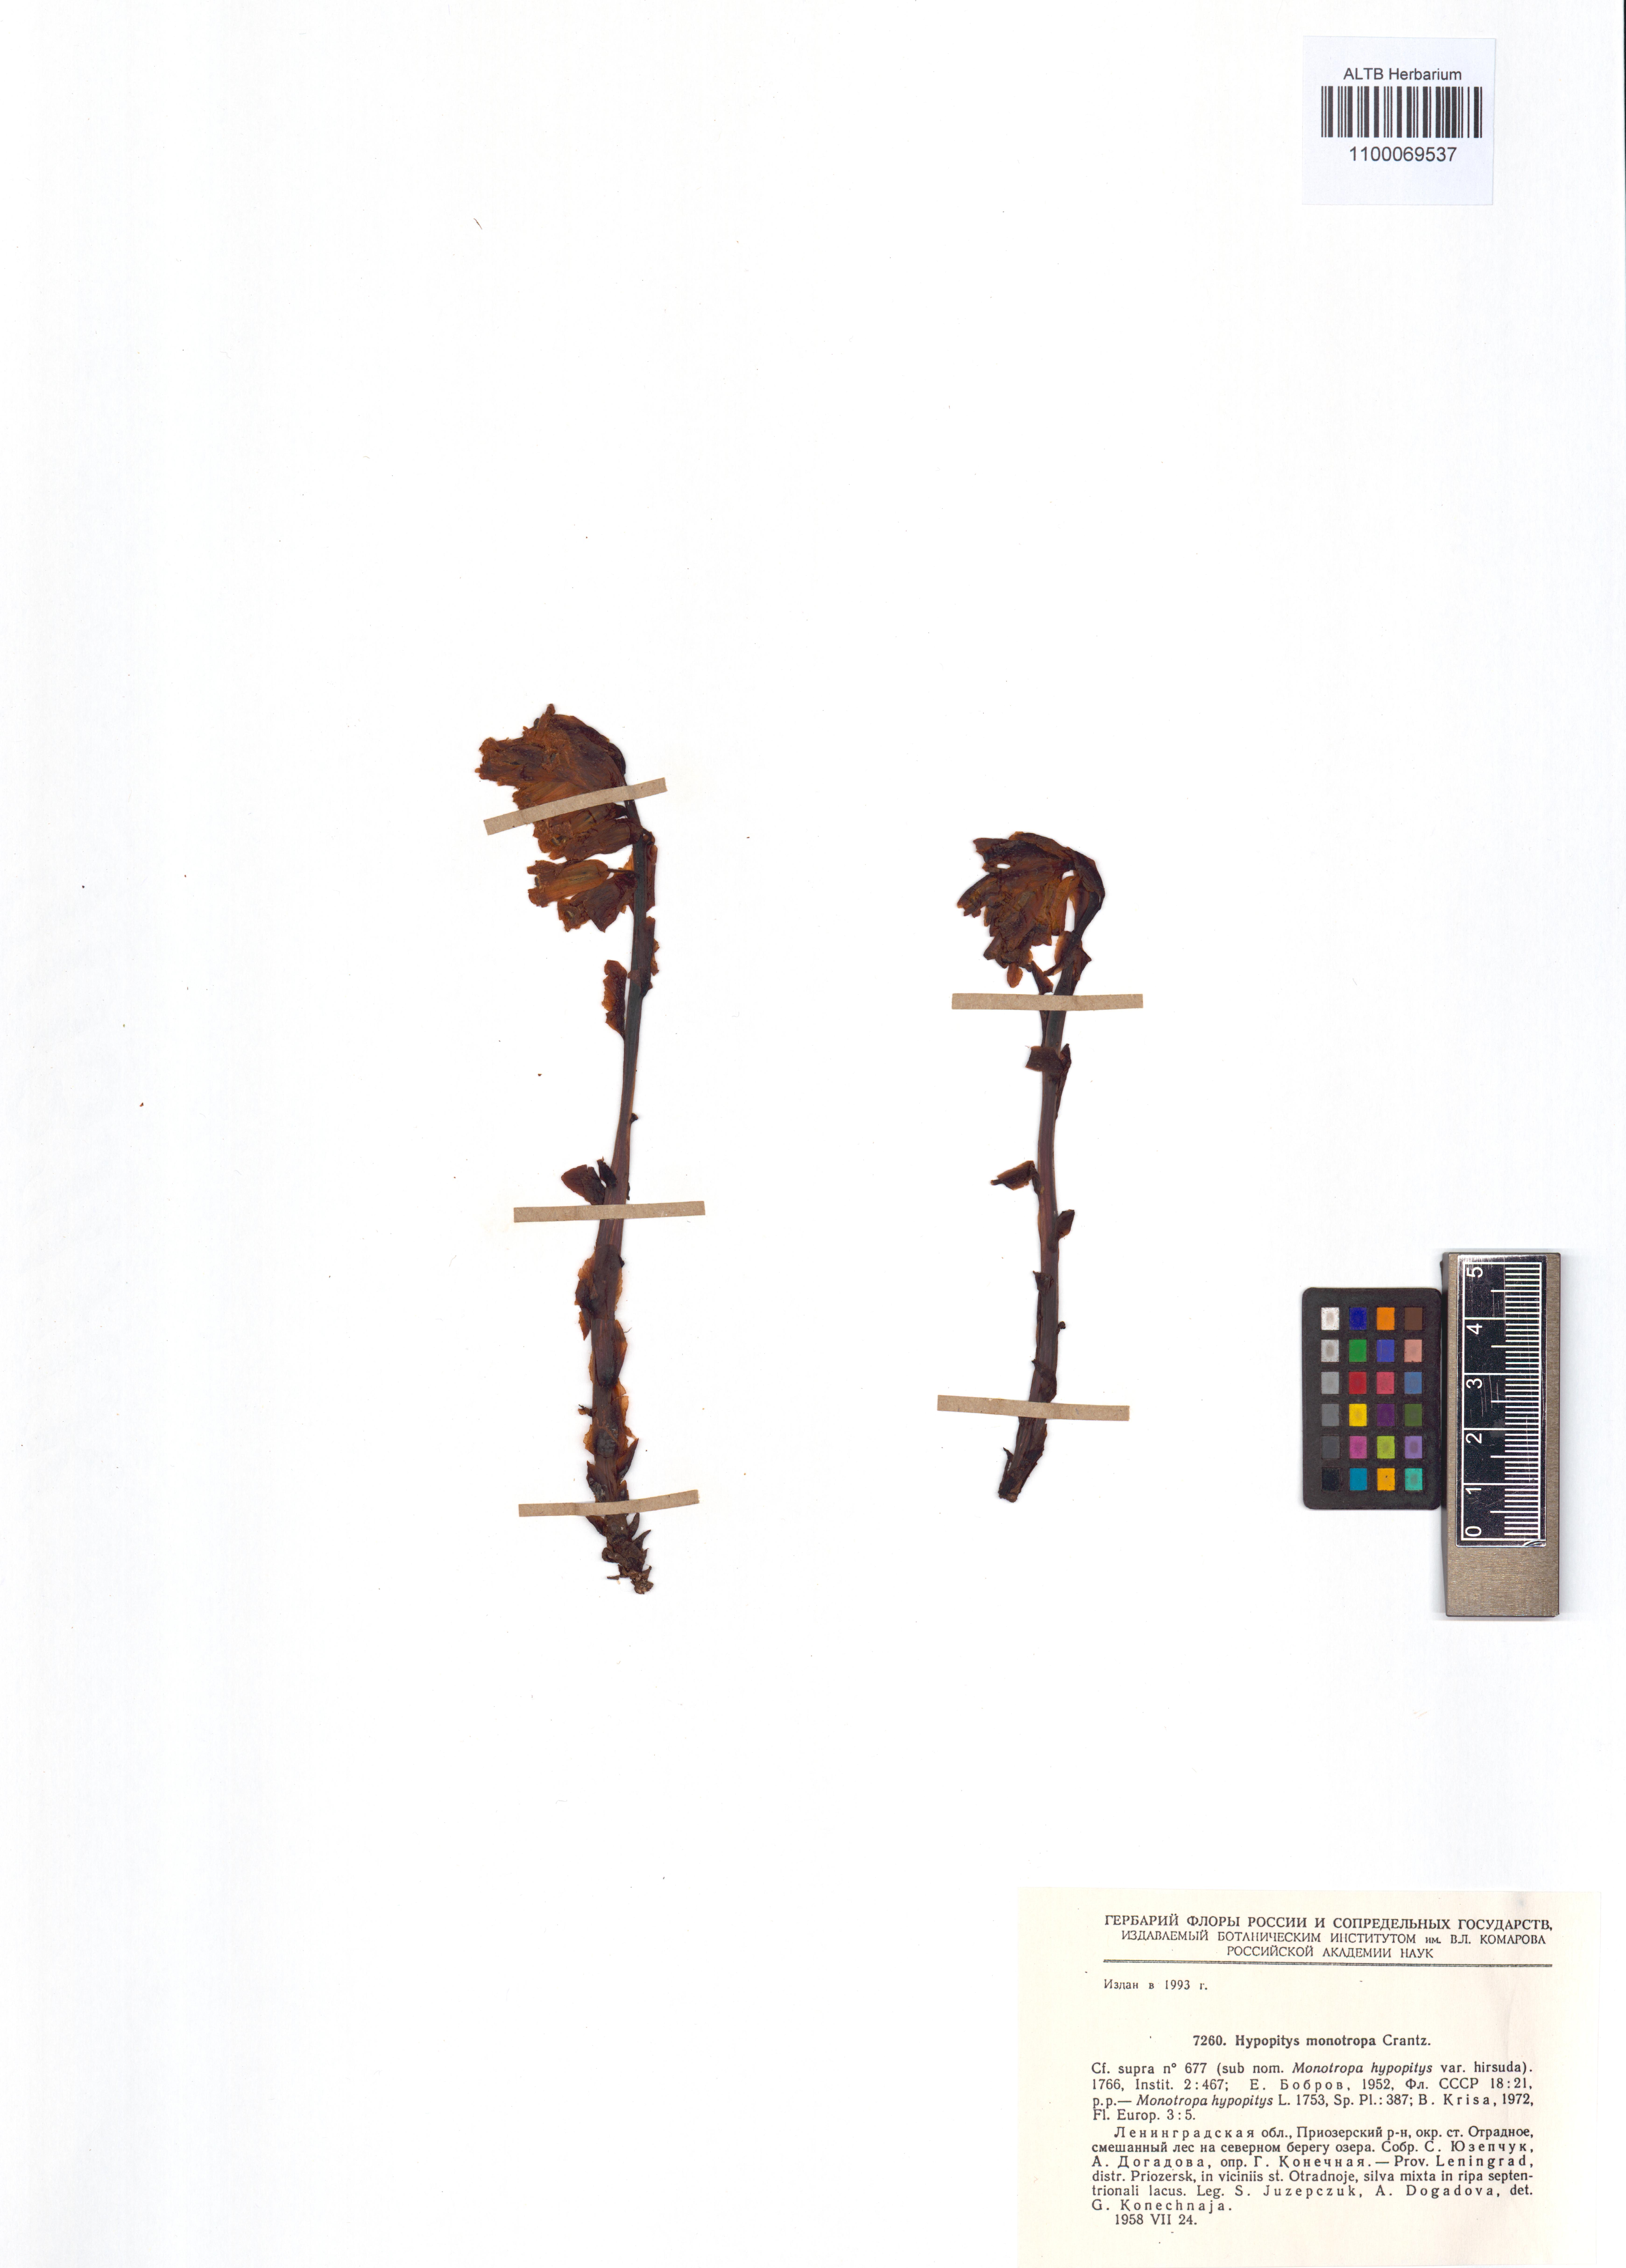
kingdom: Plantae
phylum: Tracheophyta
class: Magnoliopsida
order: Ericales
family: Ericaceae
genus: Hypopitys
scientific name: Hypopitys monotropa
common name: Yellow bird's-nest
